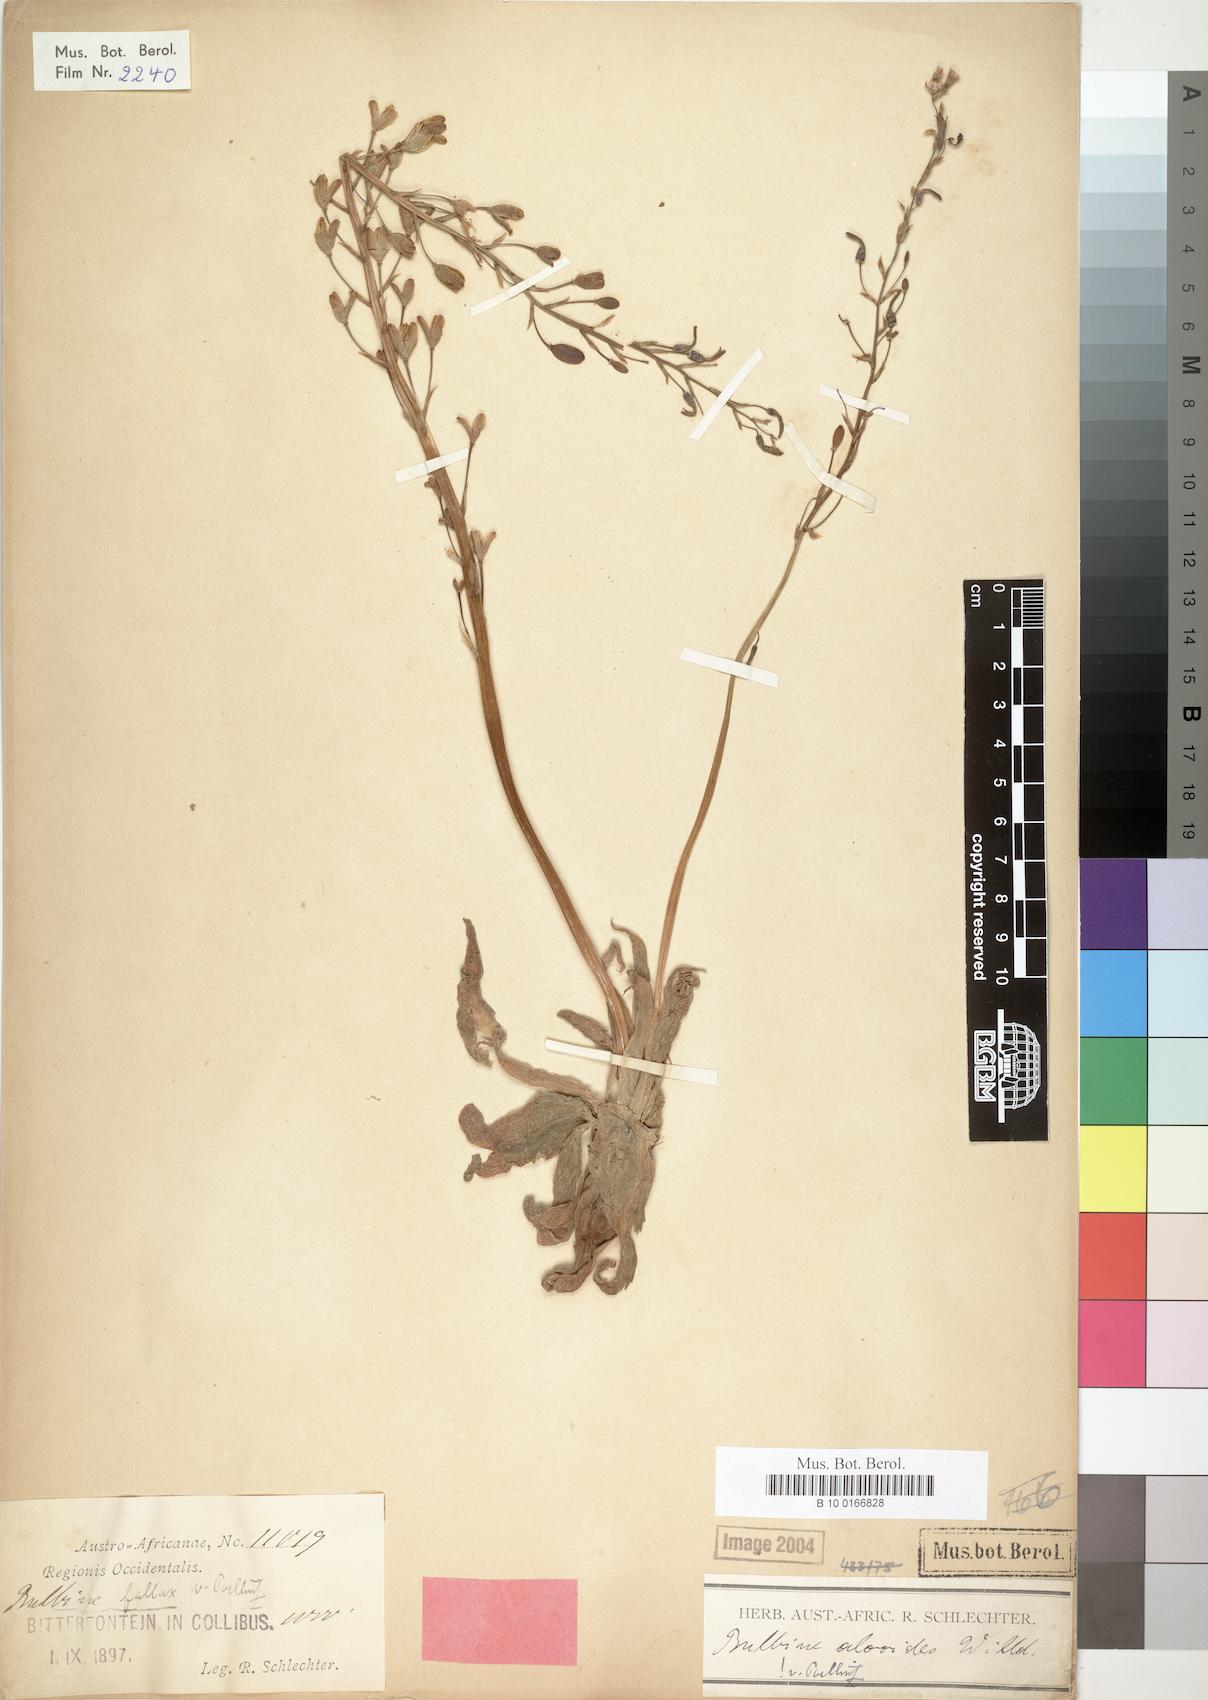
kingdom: Plantae
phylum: Tracheophyta
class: Liliopsida
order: Asparagales
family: Asphodelaceae
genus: Bulbine
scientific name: Bulbine fallax
